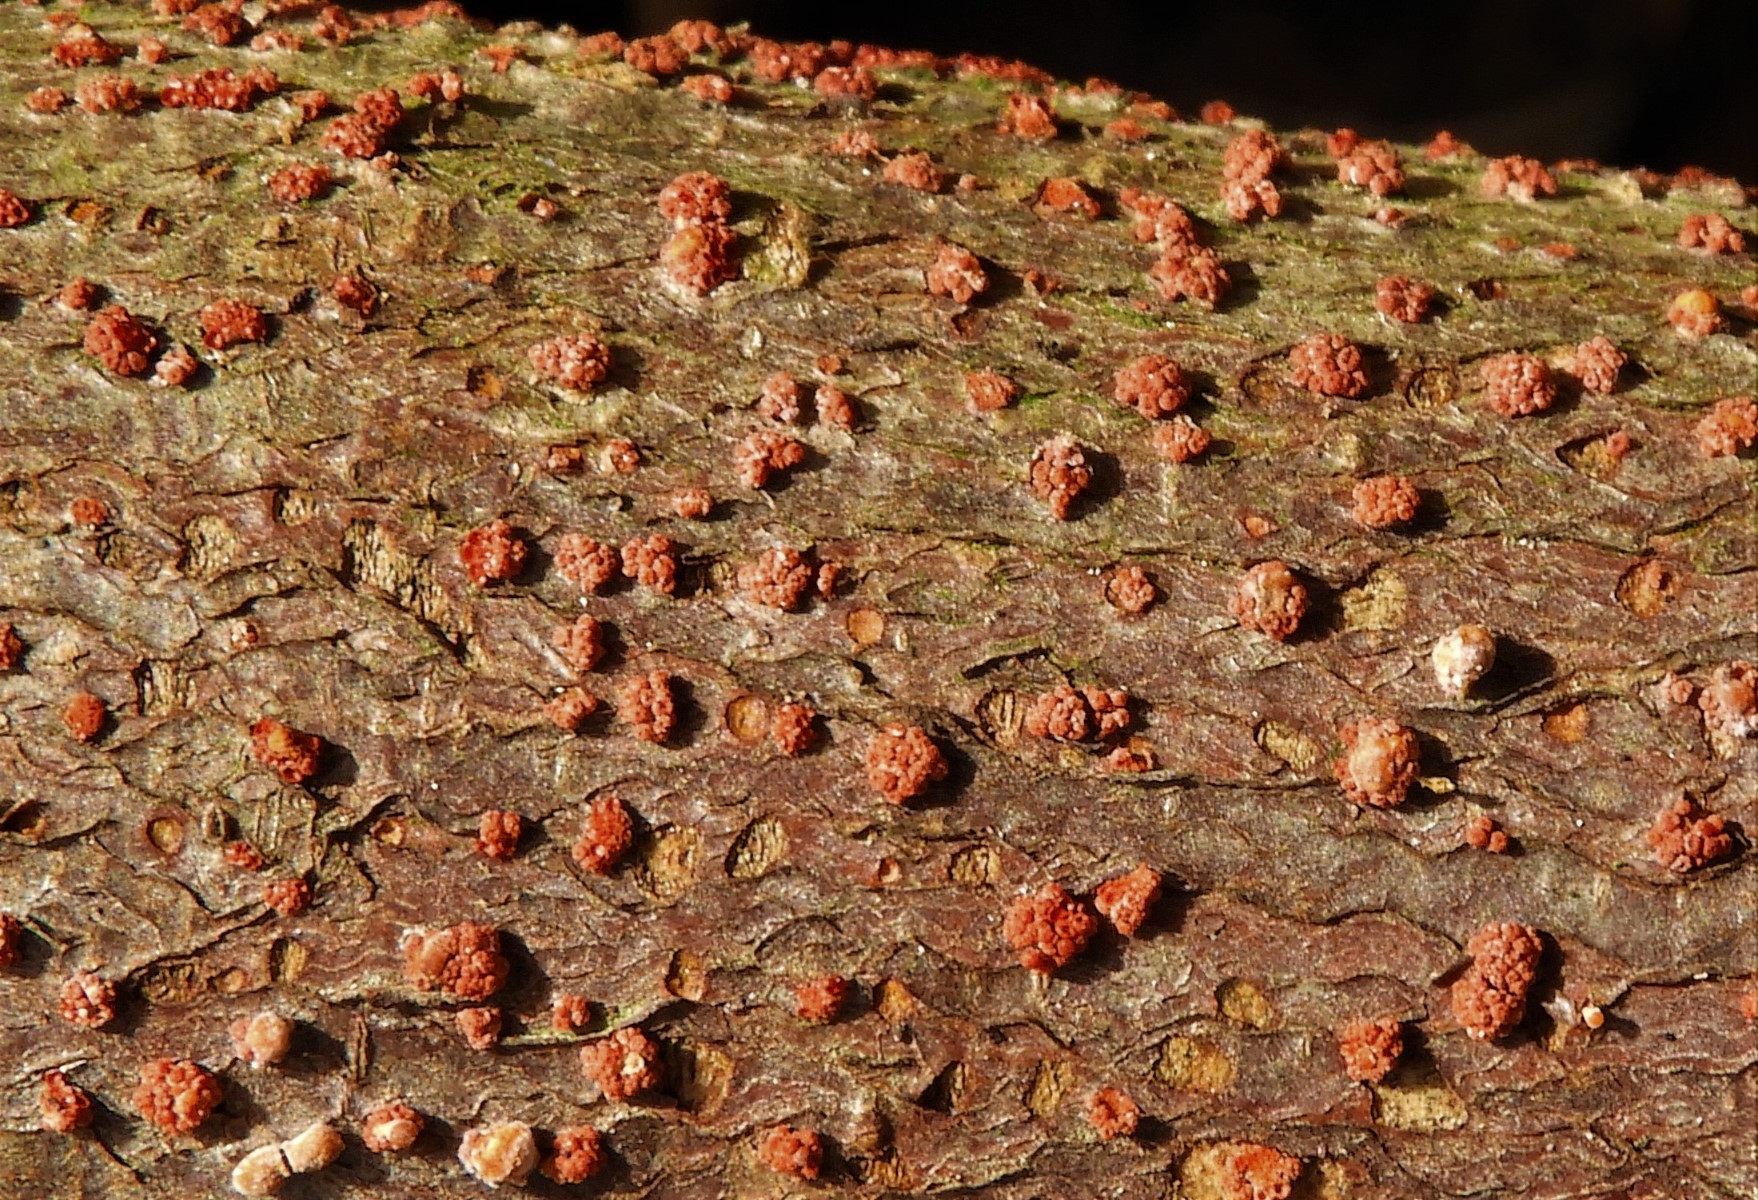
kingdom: Fungi
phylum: Ascomycota
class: Sordariomycetes
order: Hypocreales
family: Nectriaceae
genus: Nectria
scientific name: Nectria cinnabarina
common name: almindelig cinnobersvamp
